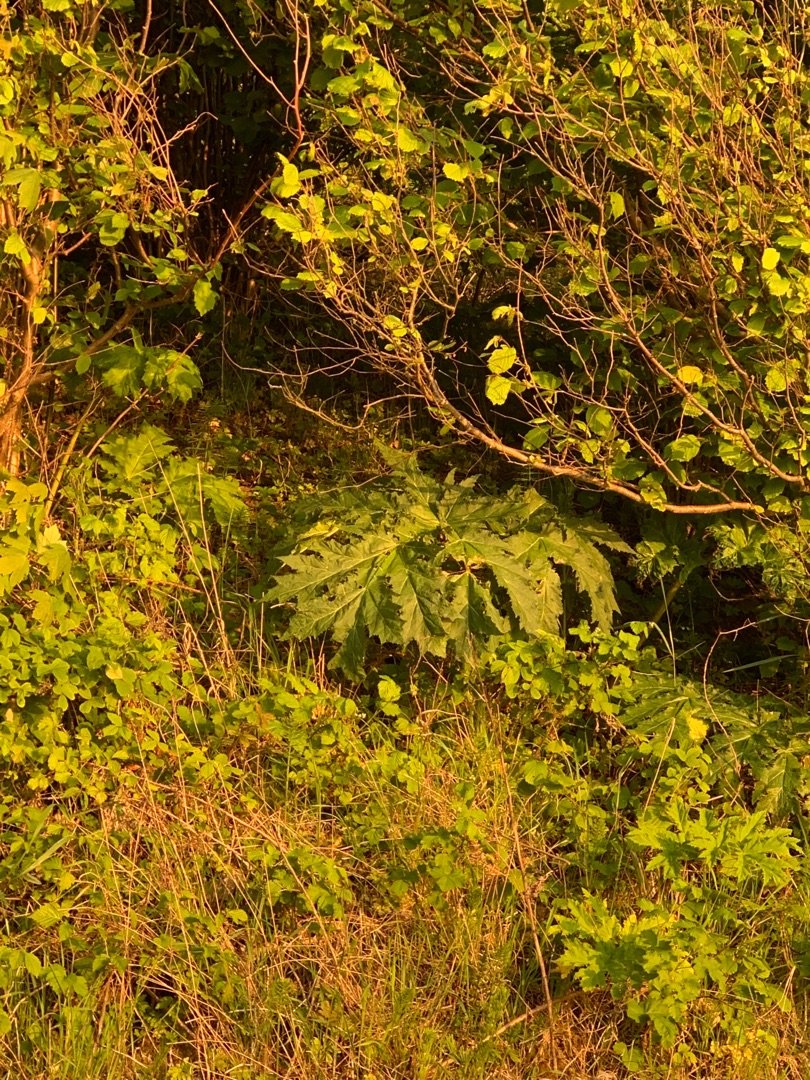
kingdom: Plantae
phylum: Tracheophyta
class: Magnoliopsida
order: Apiales
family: Apiaceae
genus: Heracleum
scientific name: Heracleum mantegazzianum
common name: Kæmpe-bjørneklo
